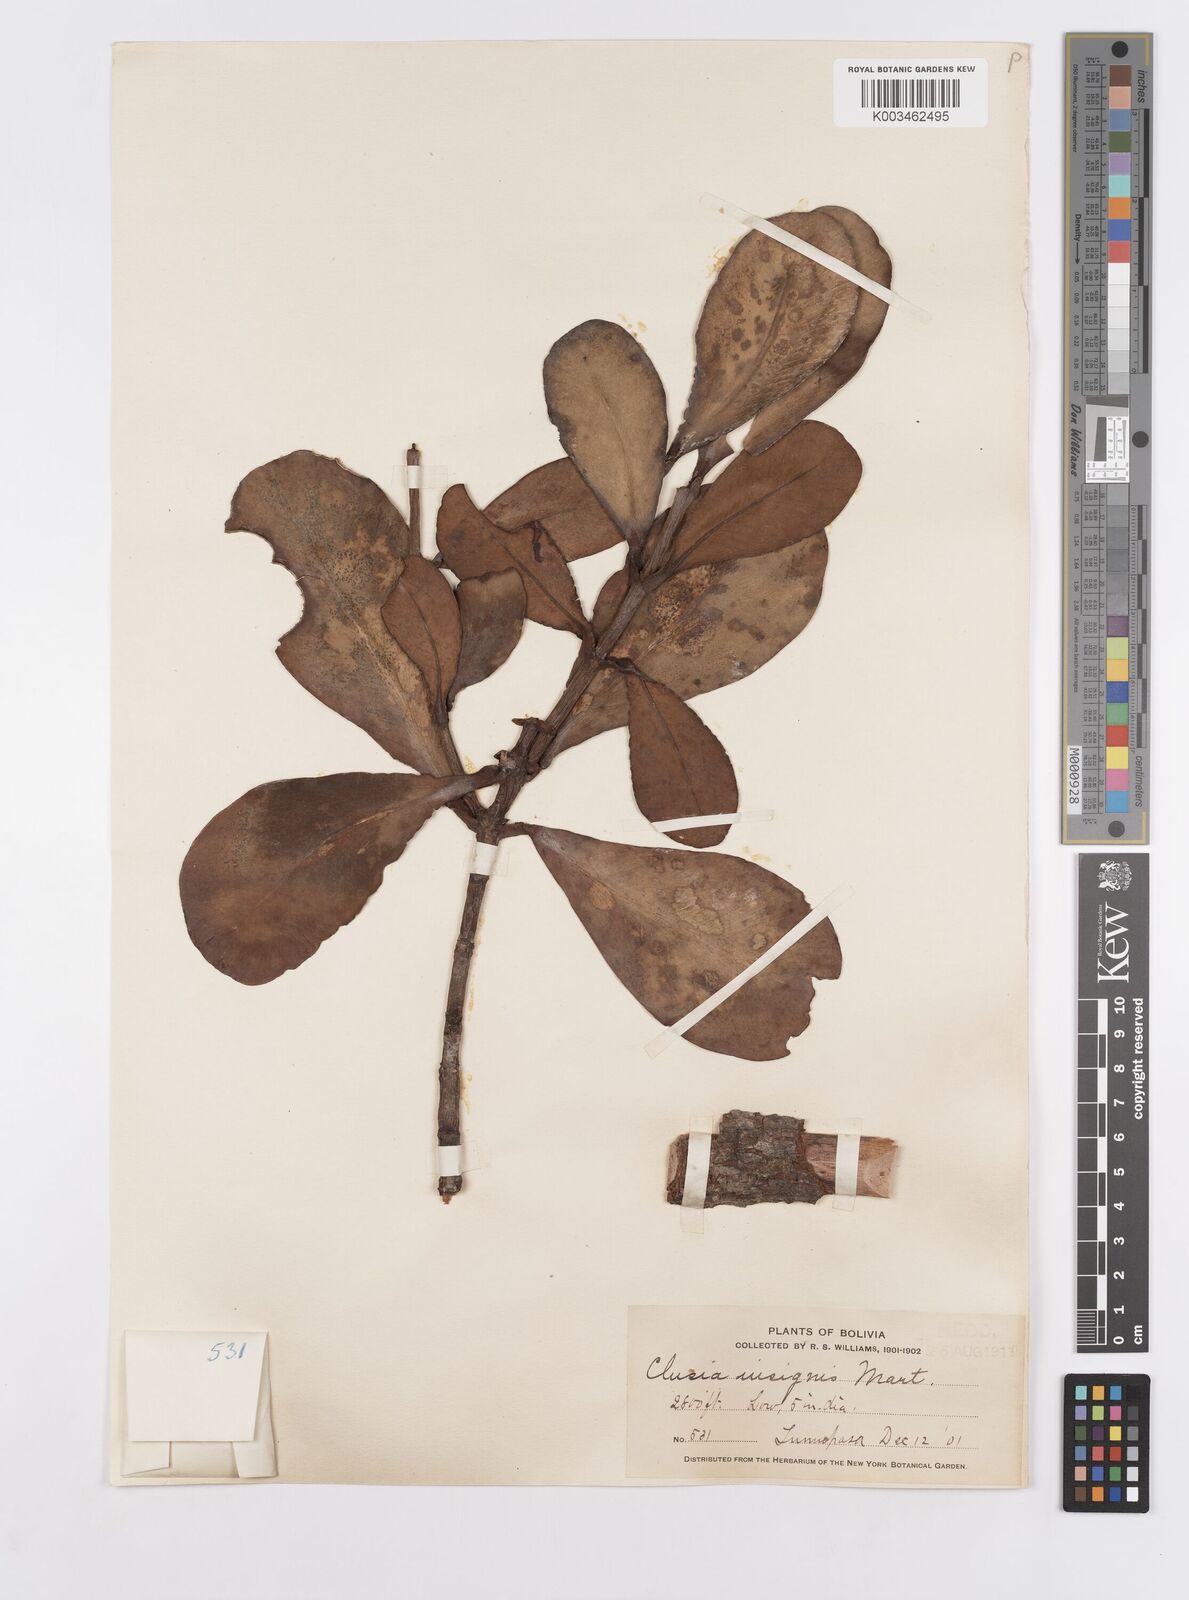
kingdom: Plantae
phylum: Tracheophyta
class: Magnoliopsida
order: Malpighiales
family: Clusiaceae
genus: Clusia
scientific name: Clusia insignis
